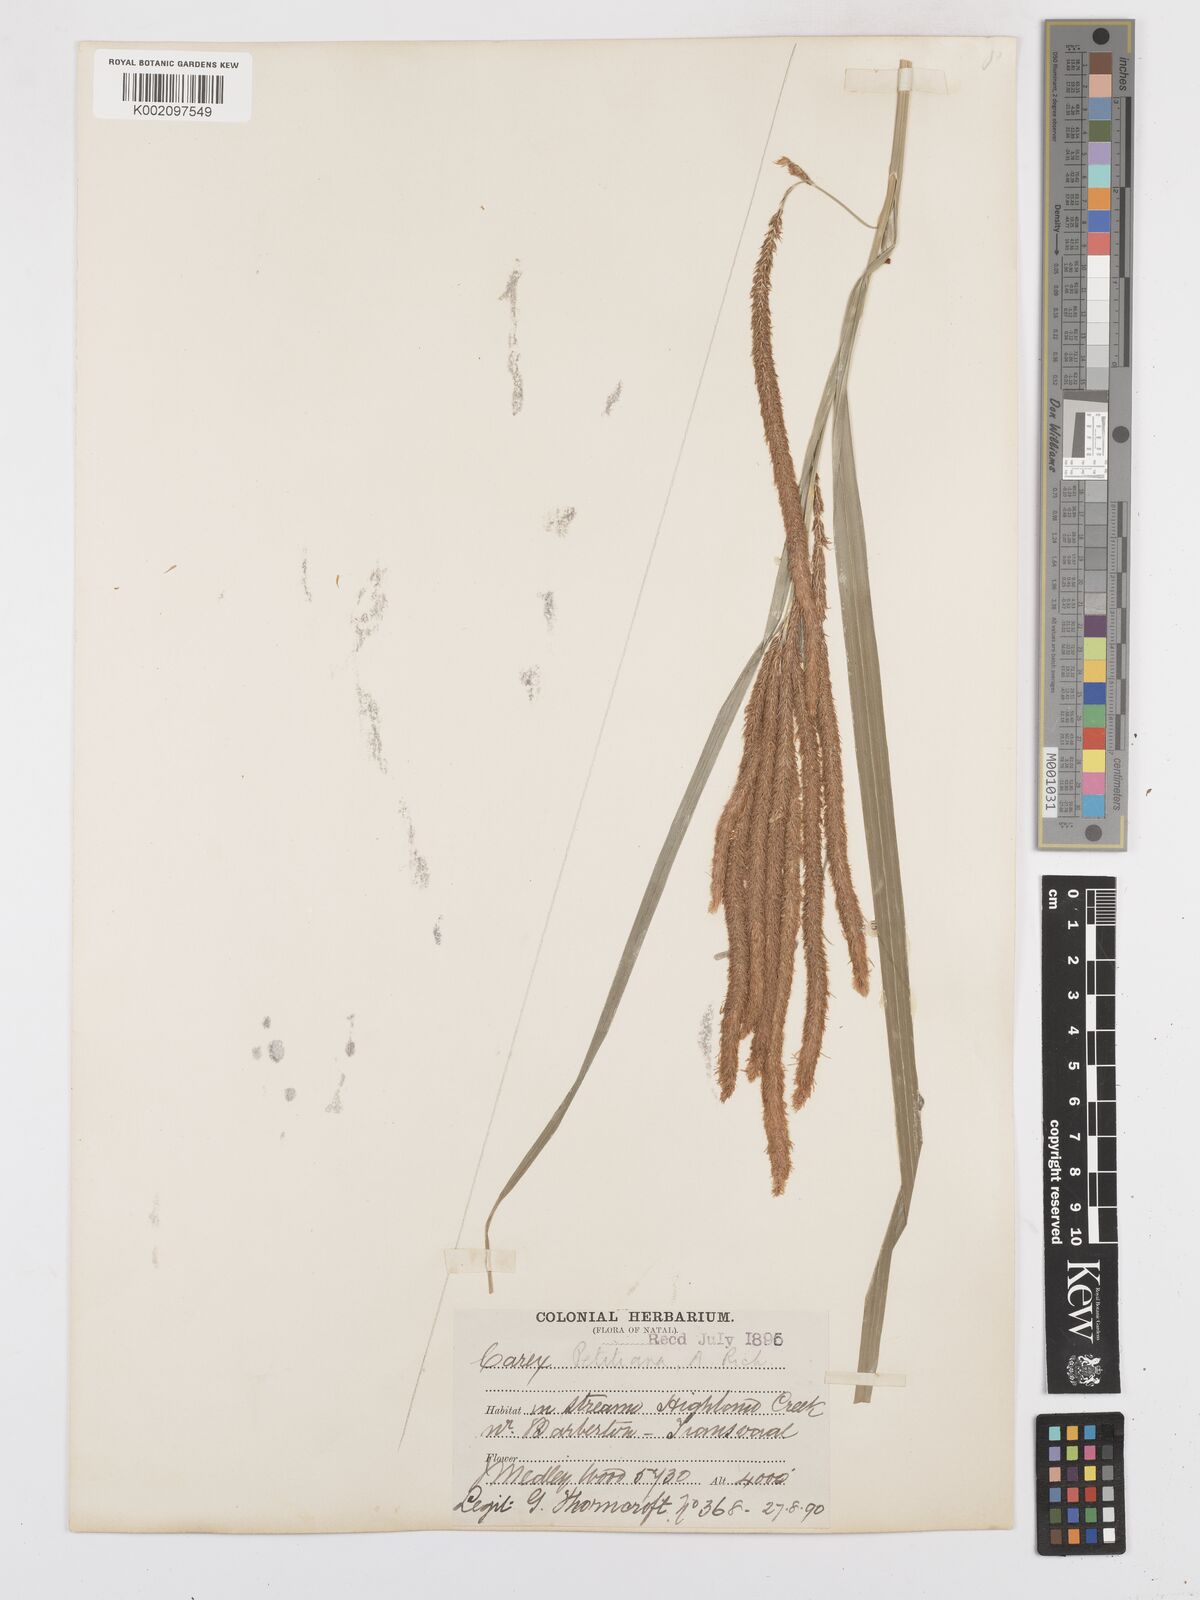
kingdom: Plantae
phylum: Tracheophyta
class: Liliopsida
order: Poales
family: Cyperaceae
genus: Carex
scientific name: Carex petitiana
